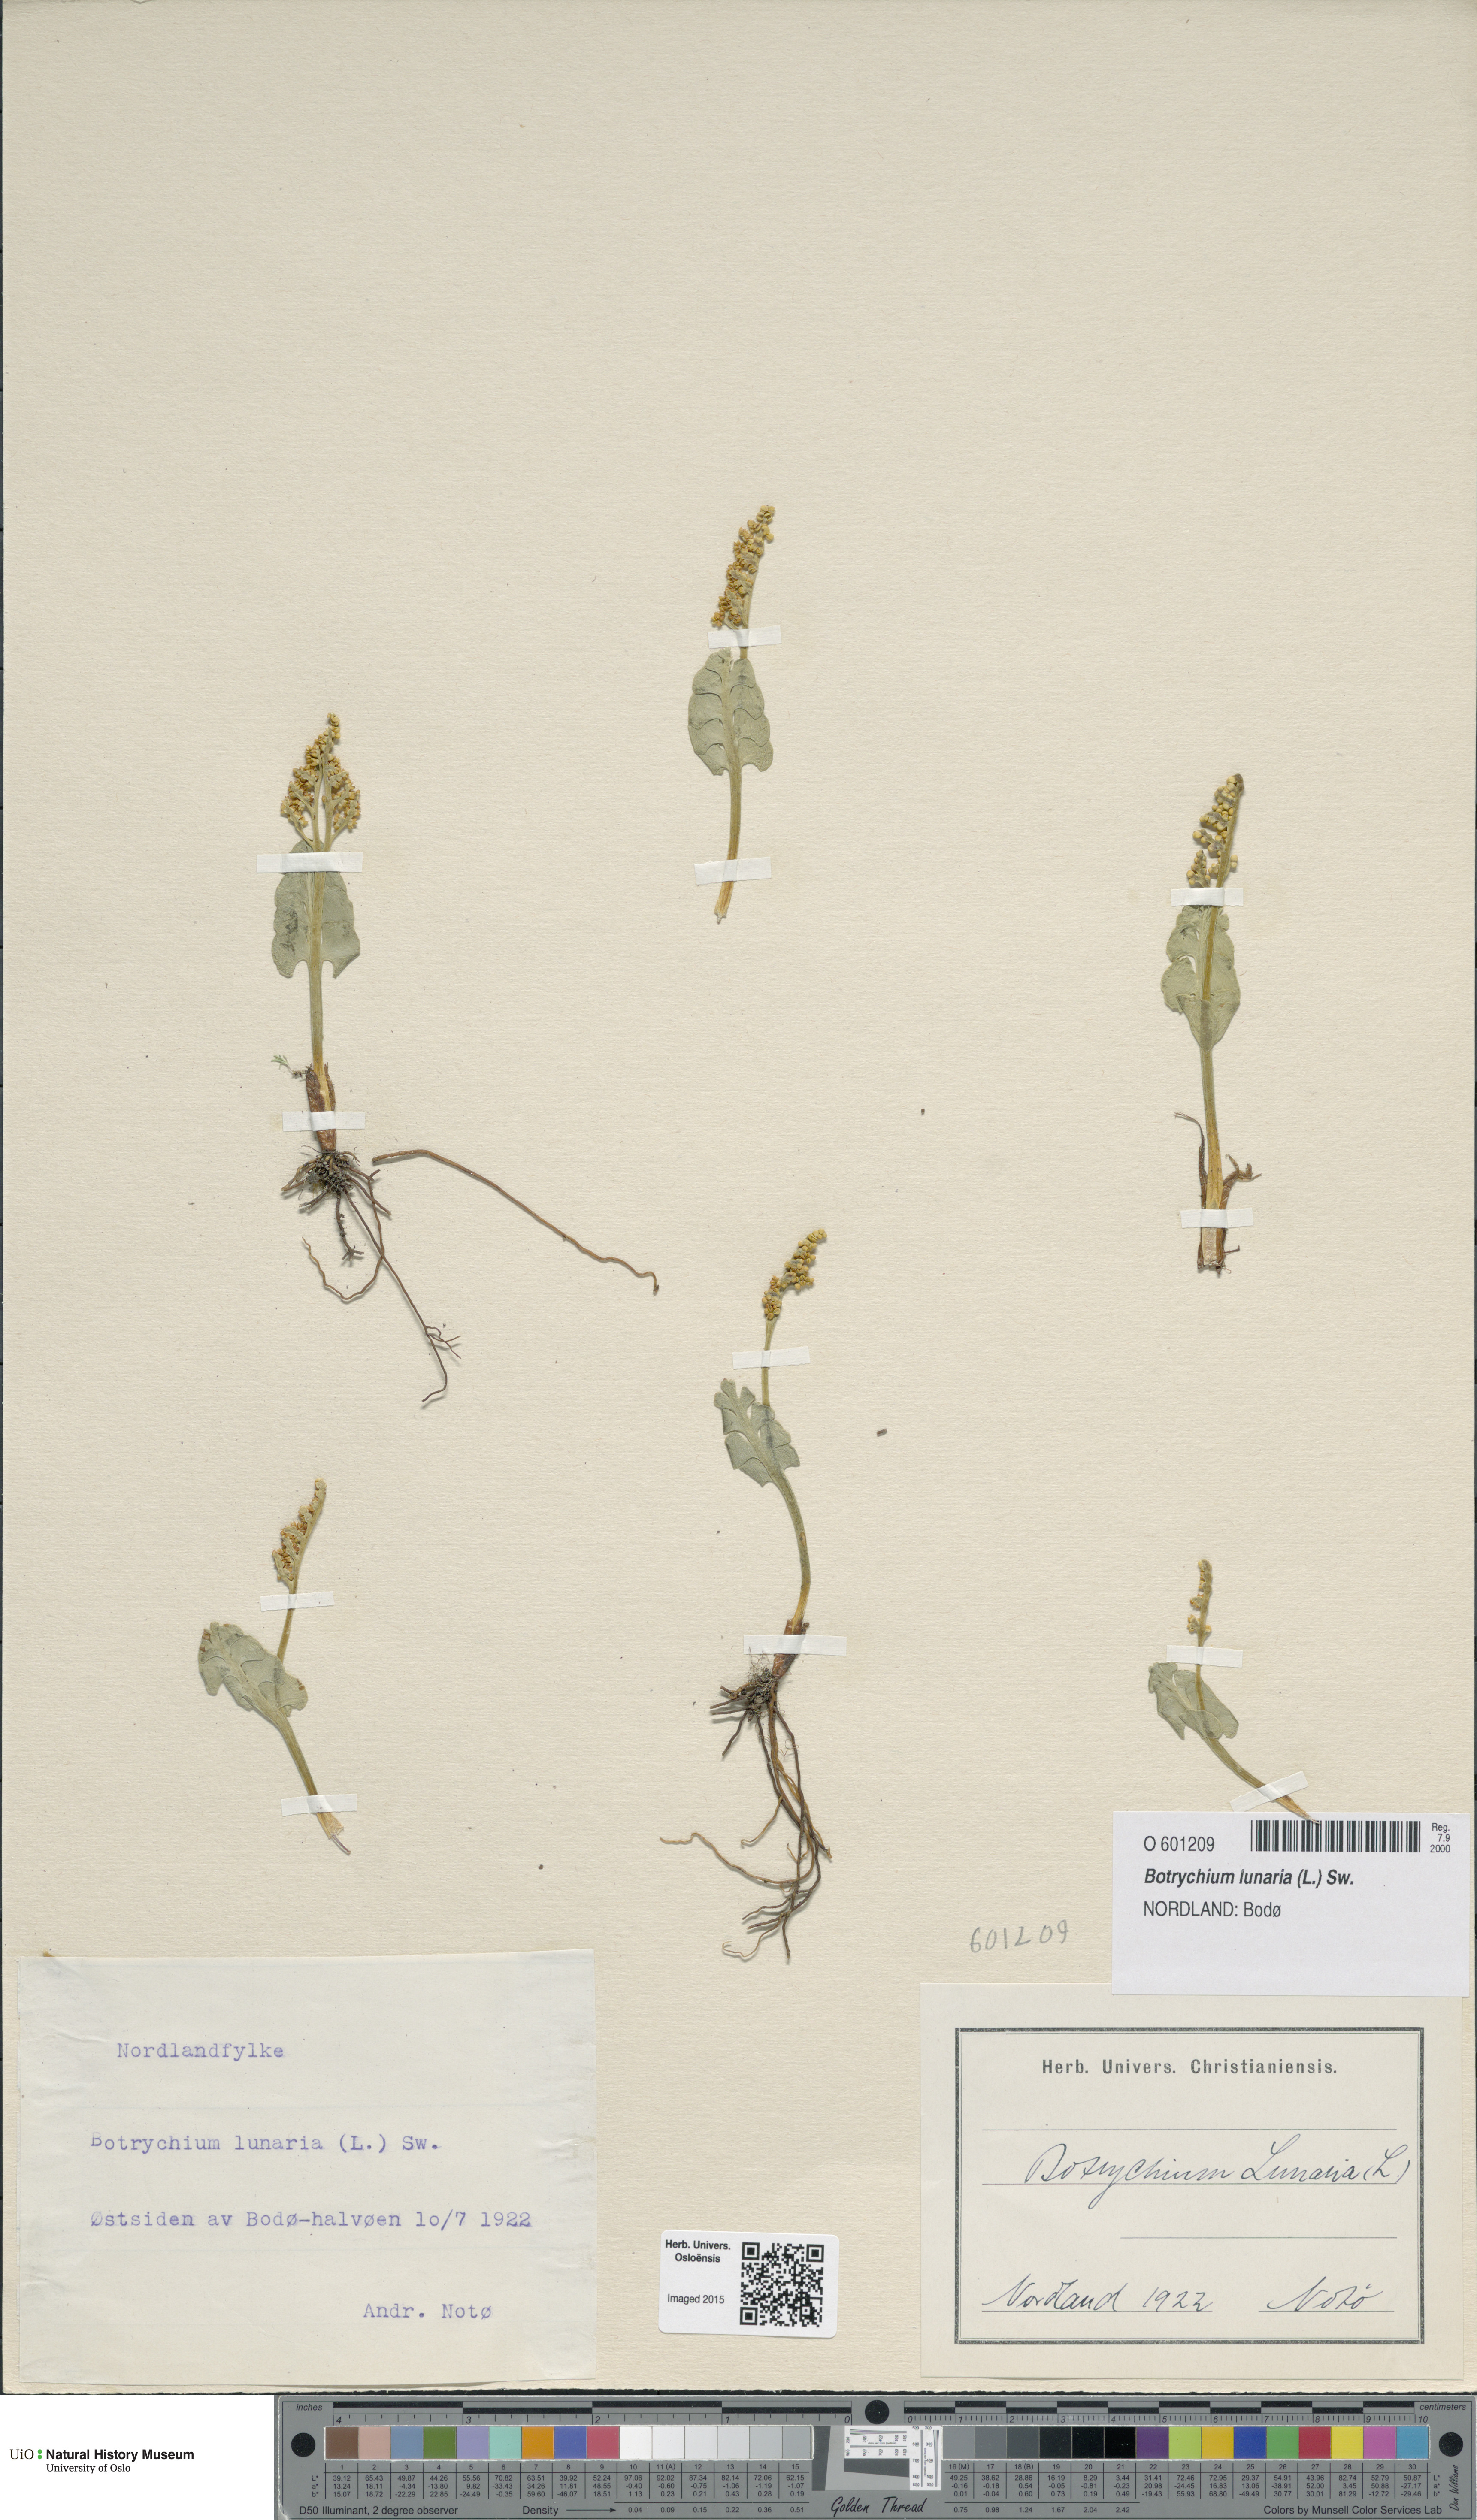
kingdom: Plantae
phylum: Tracheophyta
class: Polypodiopsida
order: Ophioglossales
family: Ophioglossaceae
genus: Botrychium
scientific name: Botrychium lunaria
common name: Moonwort
